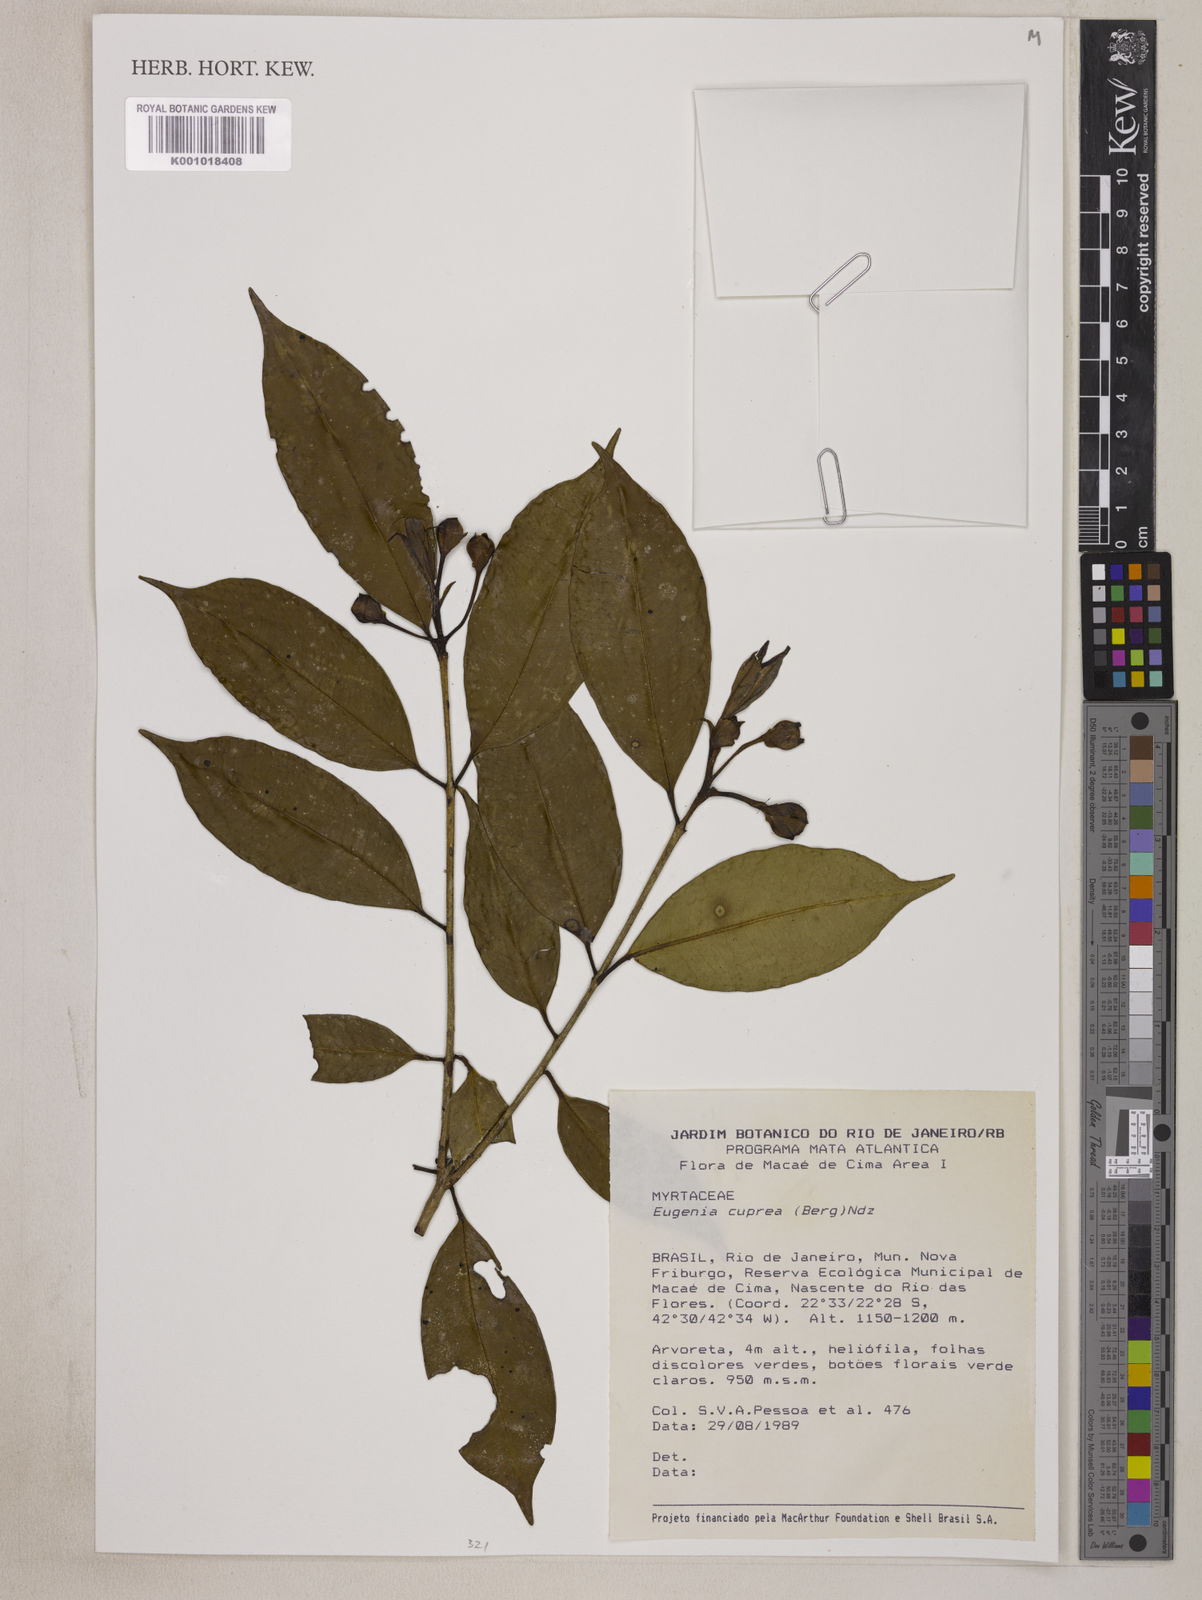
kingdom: Plantae
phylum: Tracheophyta
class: Magnoliopsida
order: Myrtales
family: Myrtaceae
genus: Eugenia
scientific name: Eugenia cuprea
